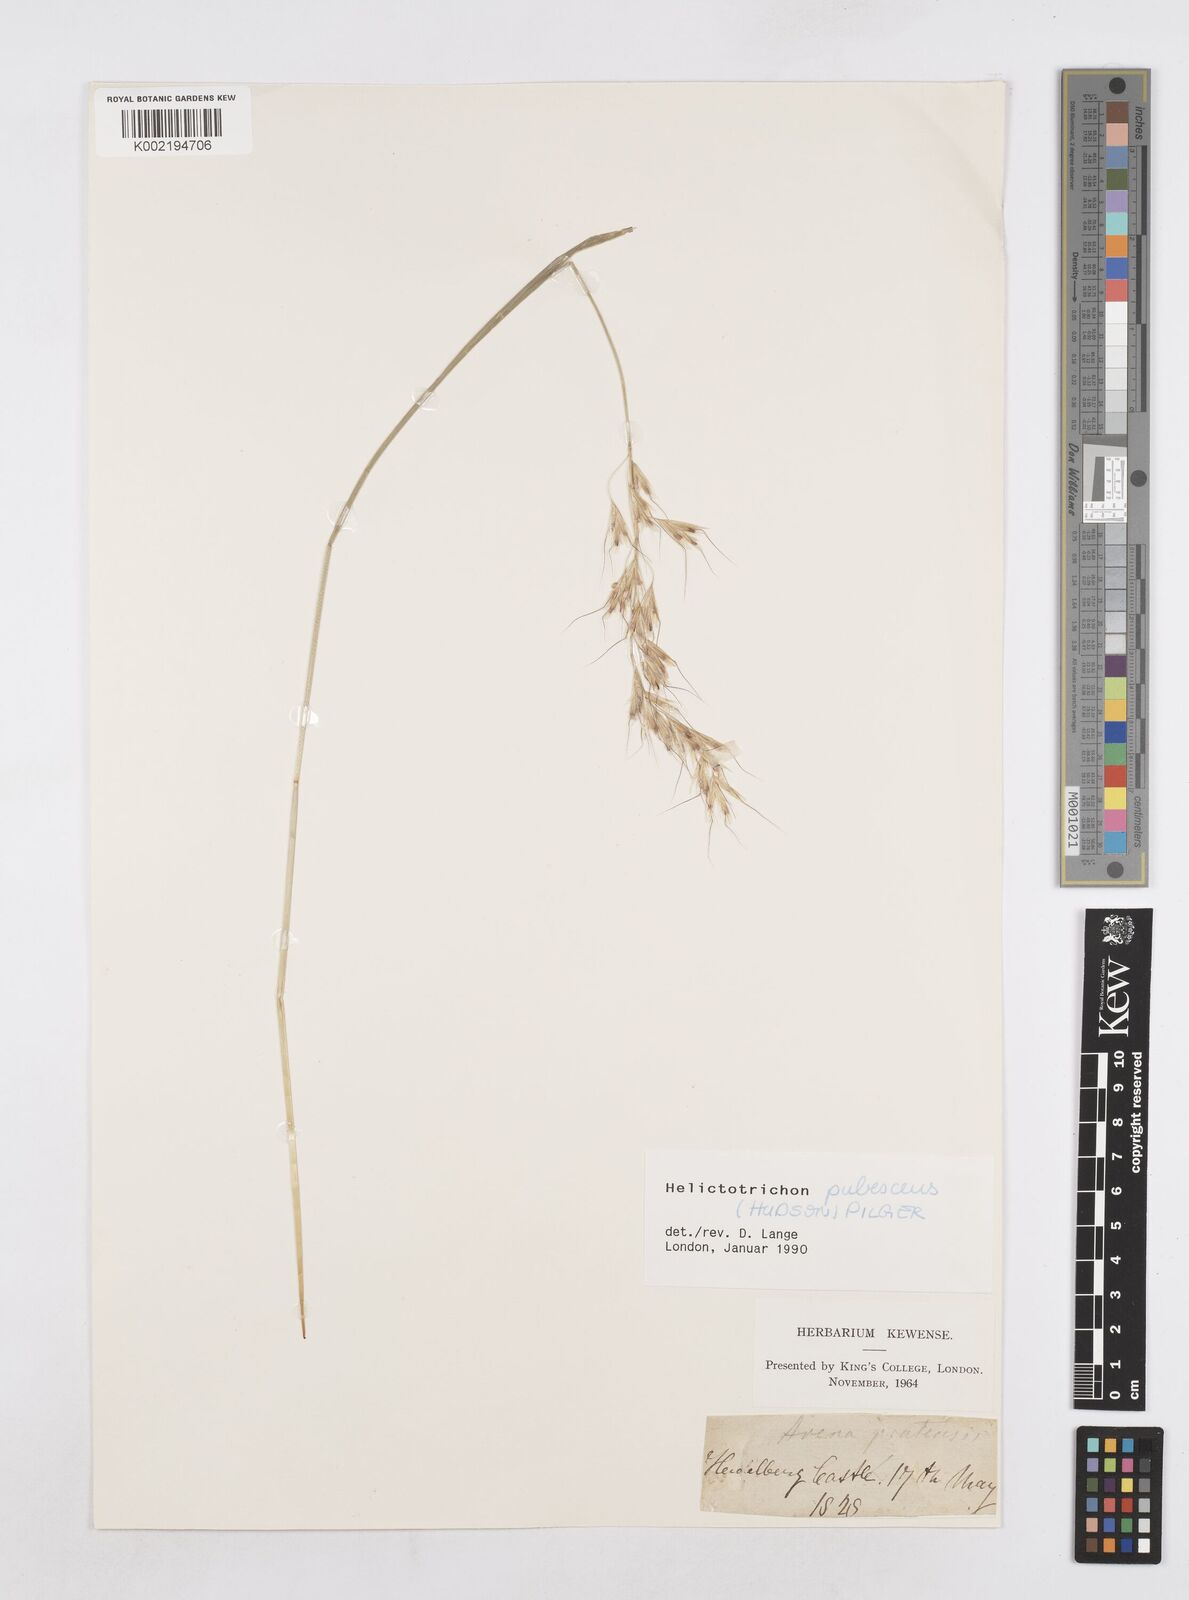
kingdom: Plantae
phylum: Tracheophyta
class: Liliopsida
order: Poales
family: Poaceae
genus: Avenula
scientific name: Avenula pubescens
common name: Downy alpine oatgrass
